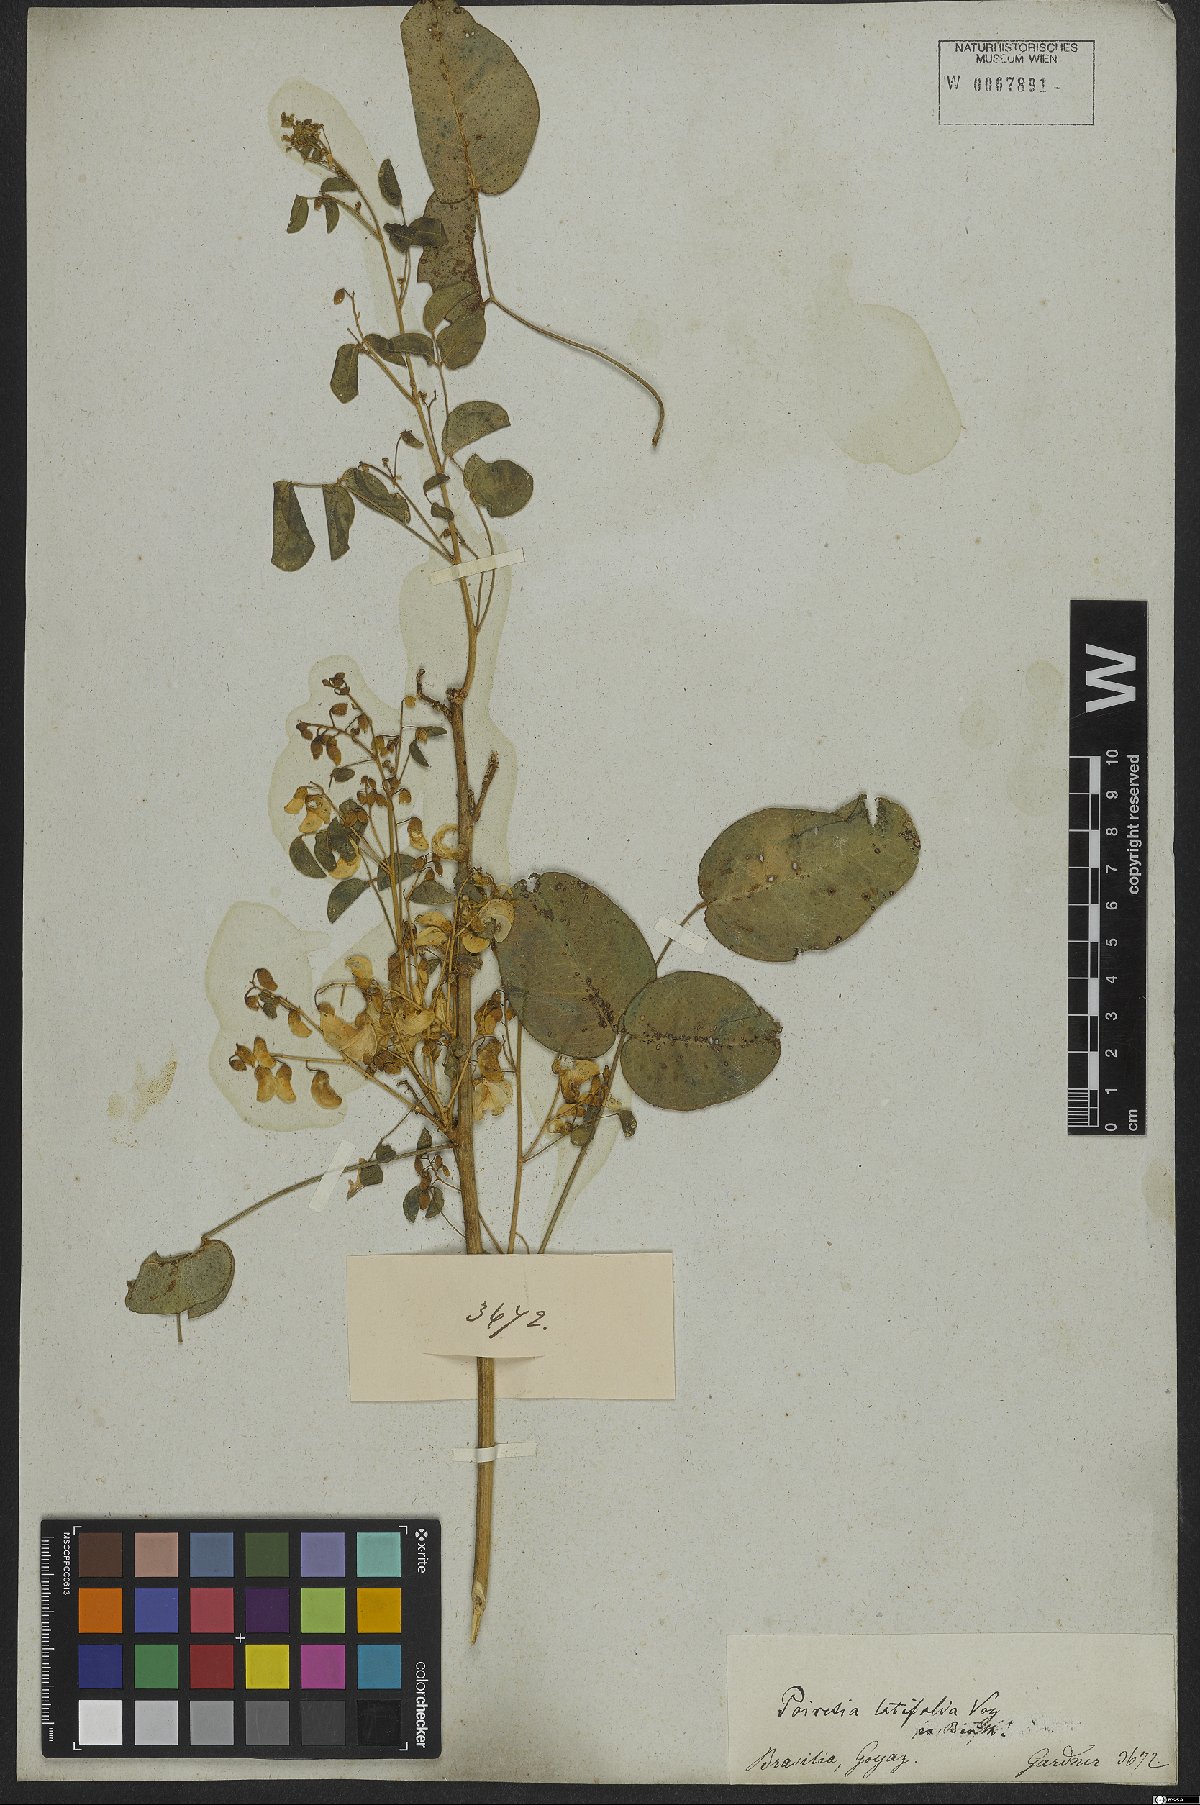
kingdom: Plantae
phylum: Tracheophyta
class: Magnoliopsida
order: Fabales
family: Fabaceae
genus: Poiretia
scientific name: Poiretia latifolia
